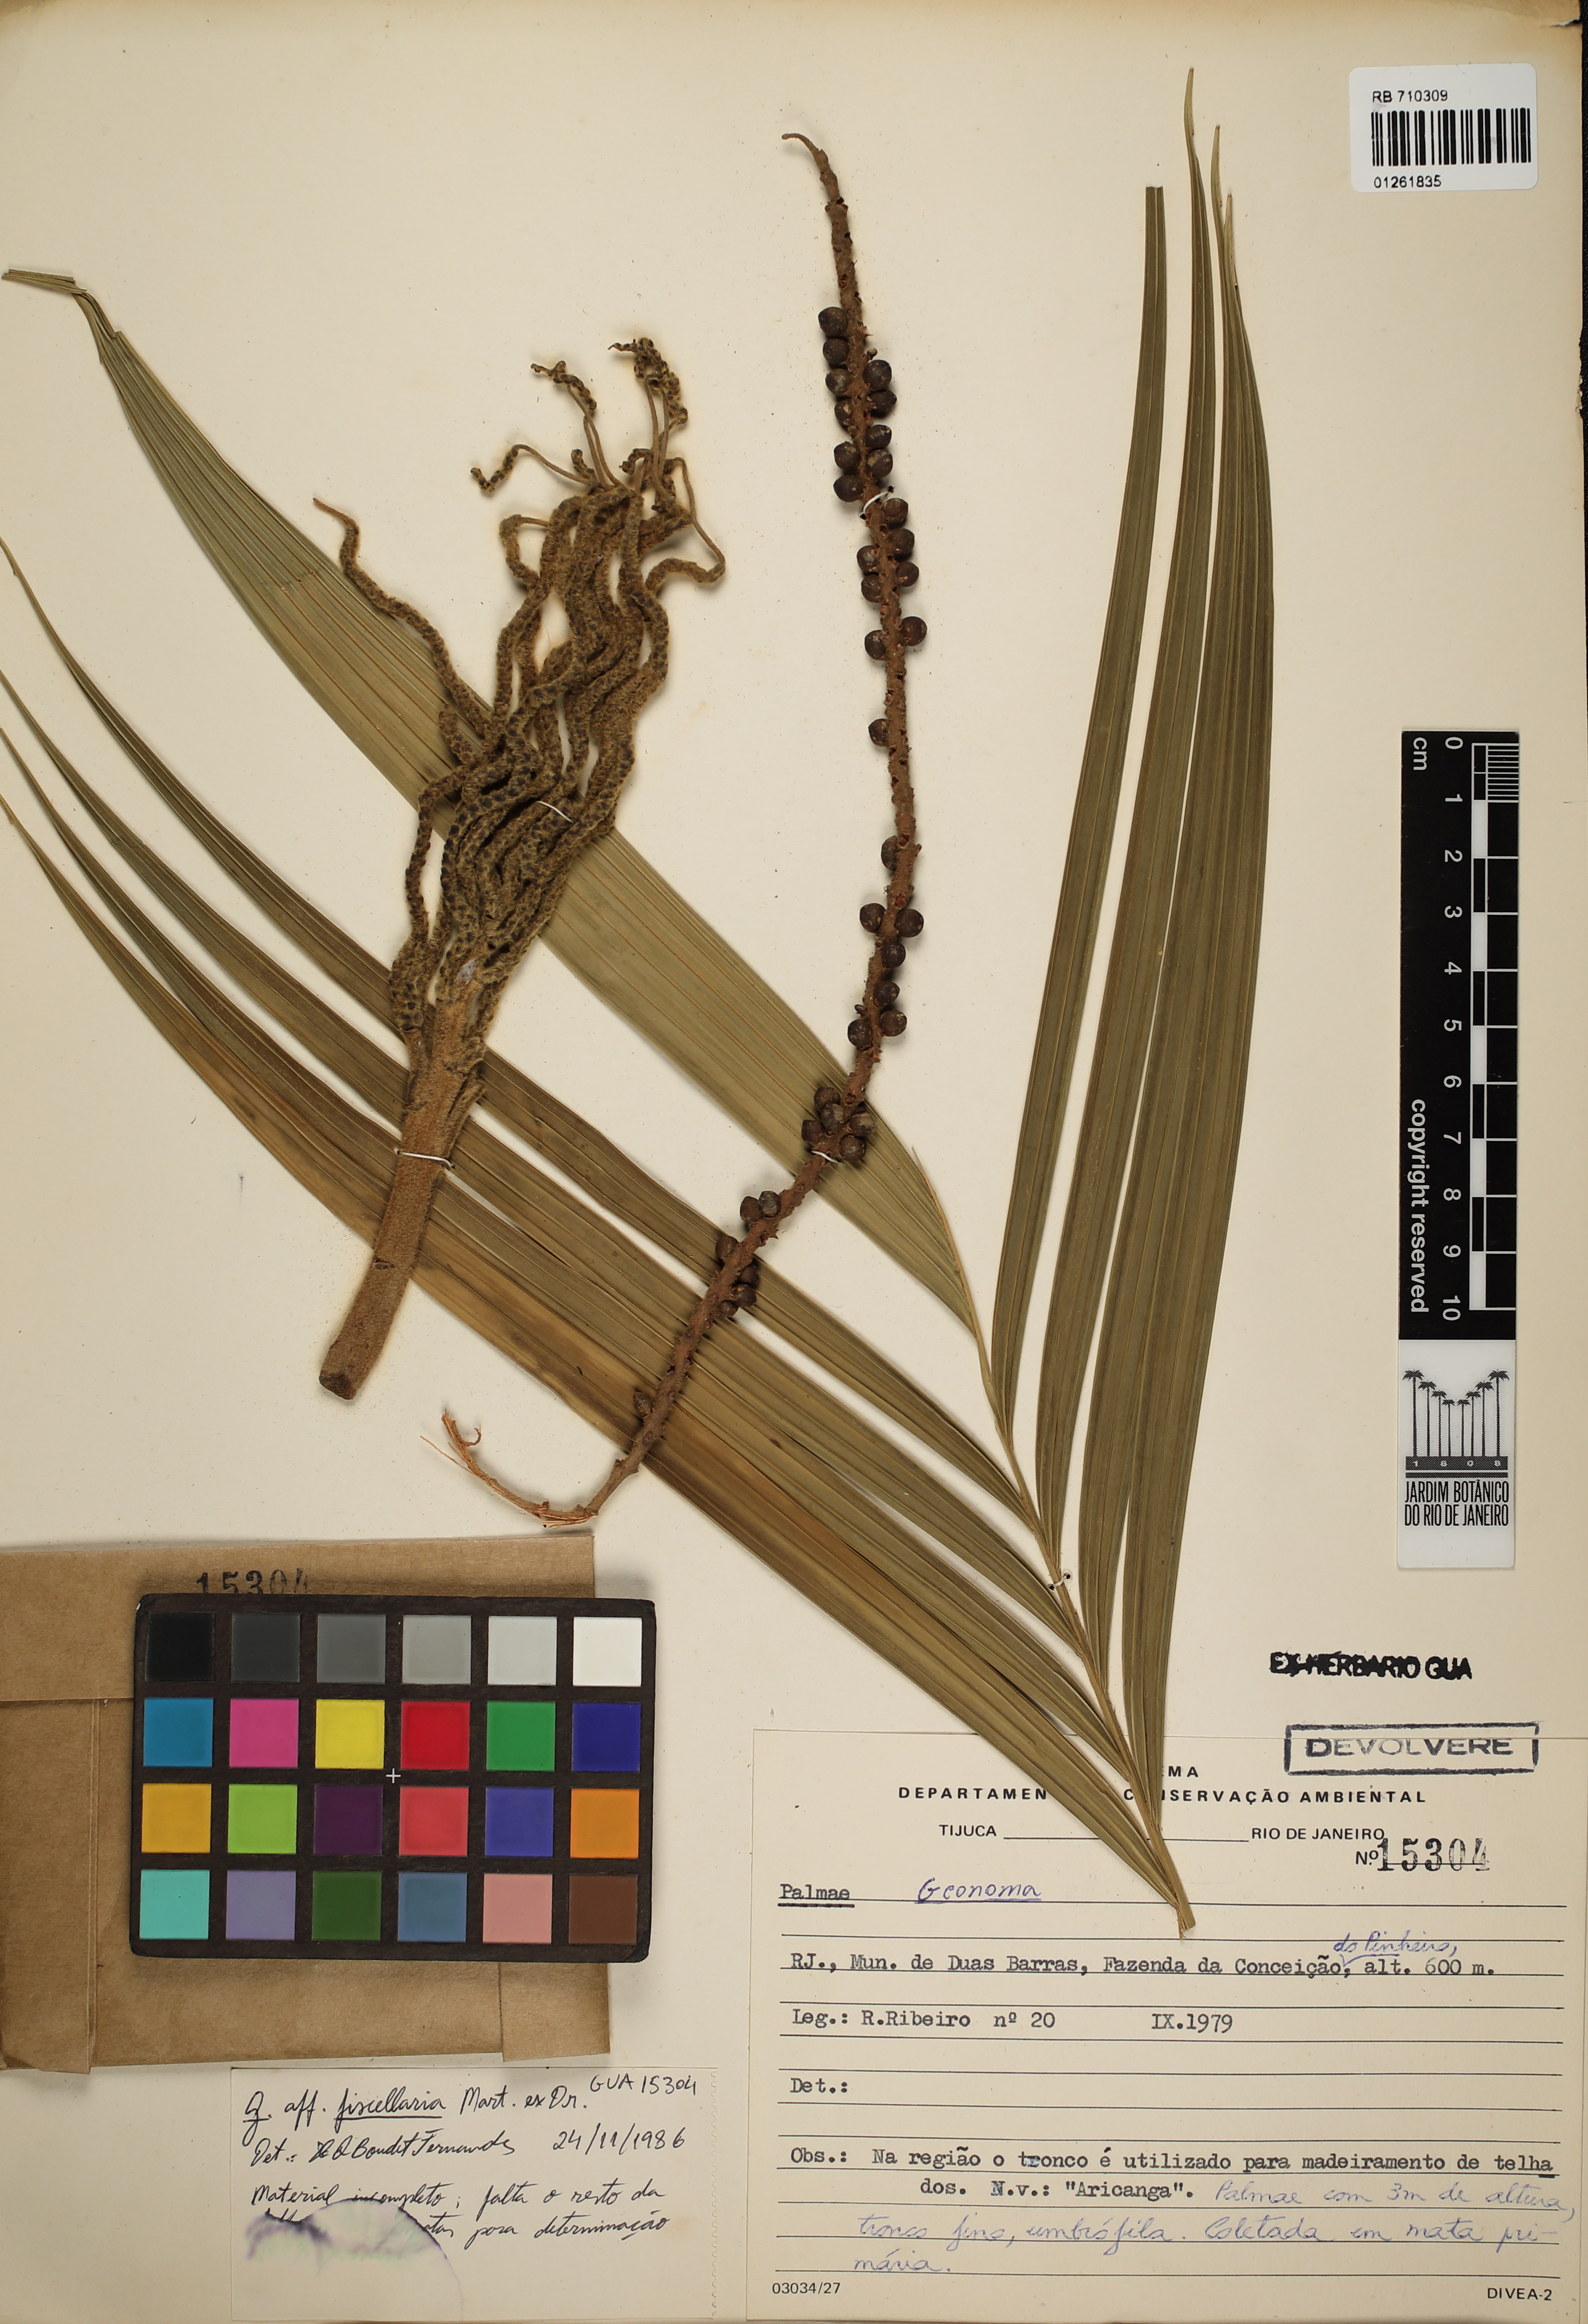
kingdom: Plantae
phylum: Tracheophyta
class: Liliopsida
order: Arecales
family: Arecaceae
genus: Geonoma
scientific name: Geonoma pohliana
